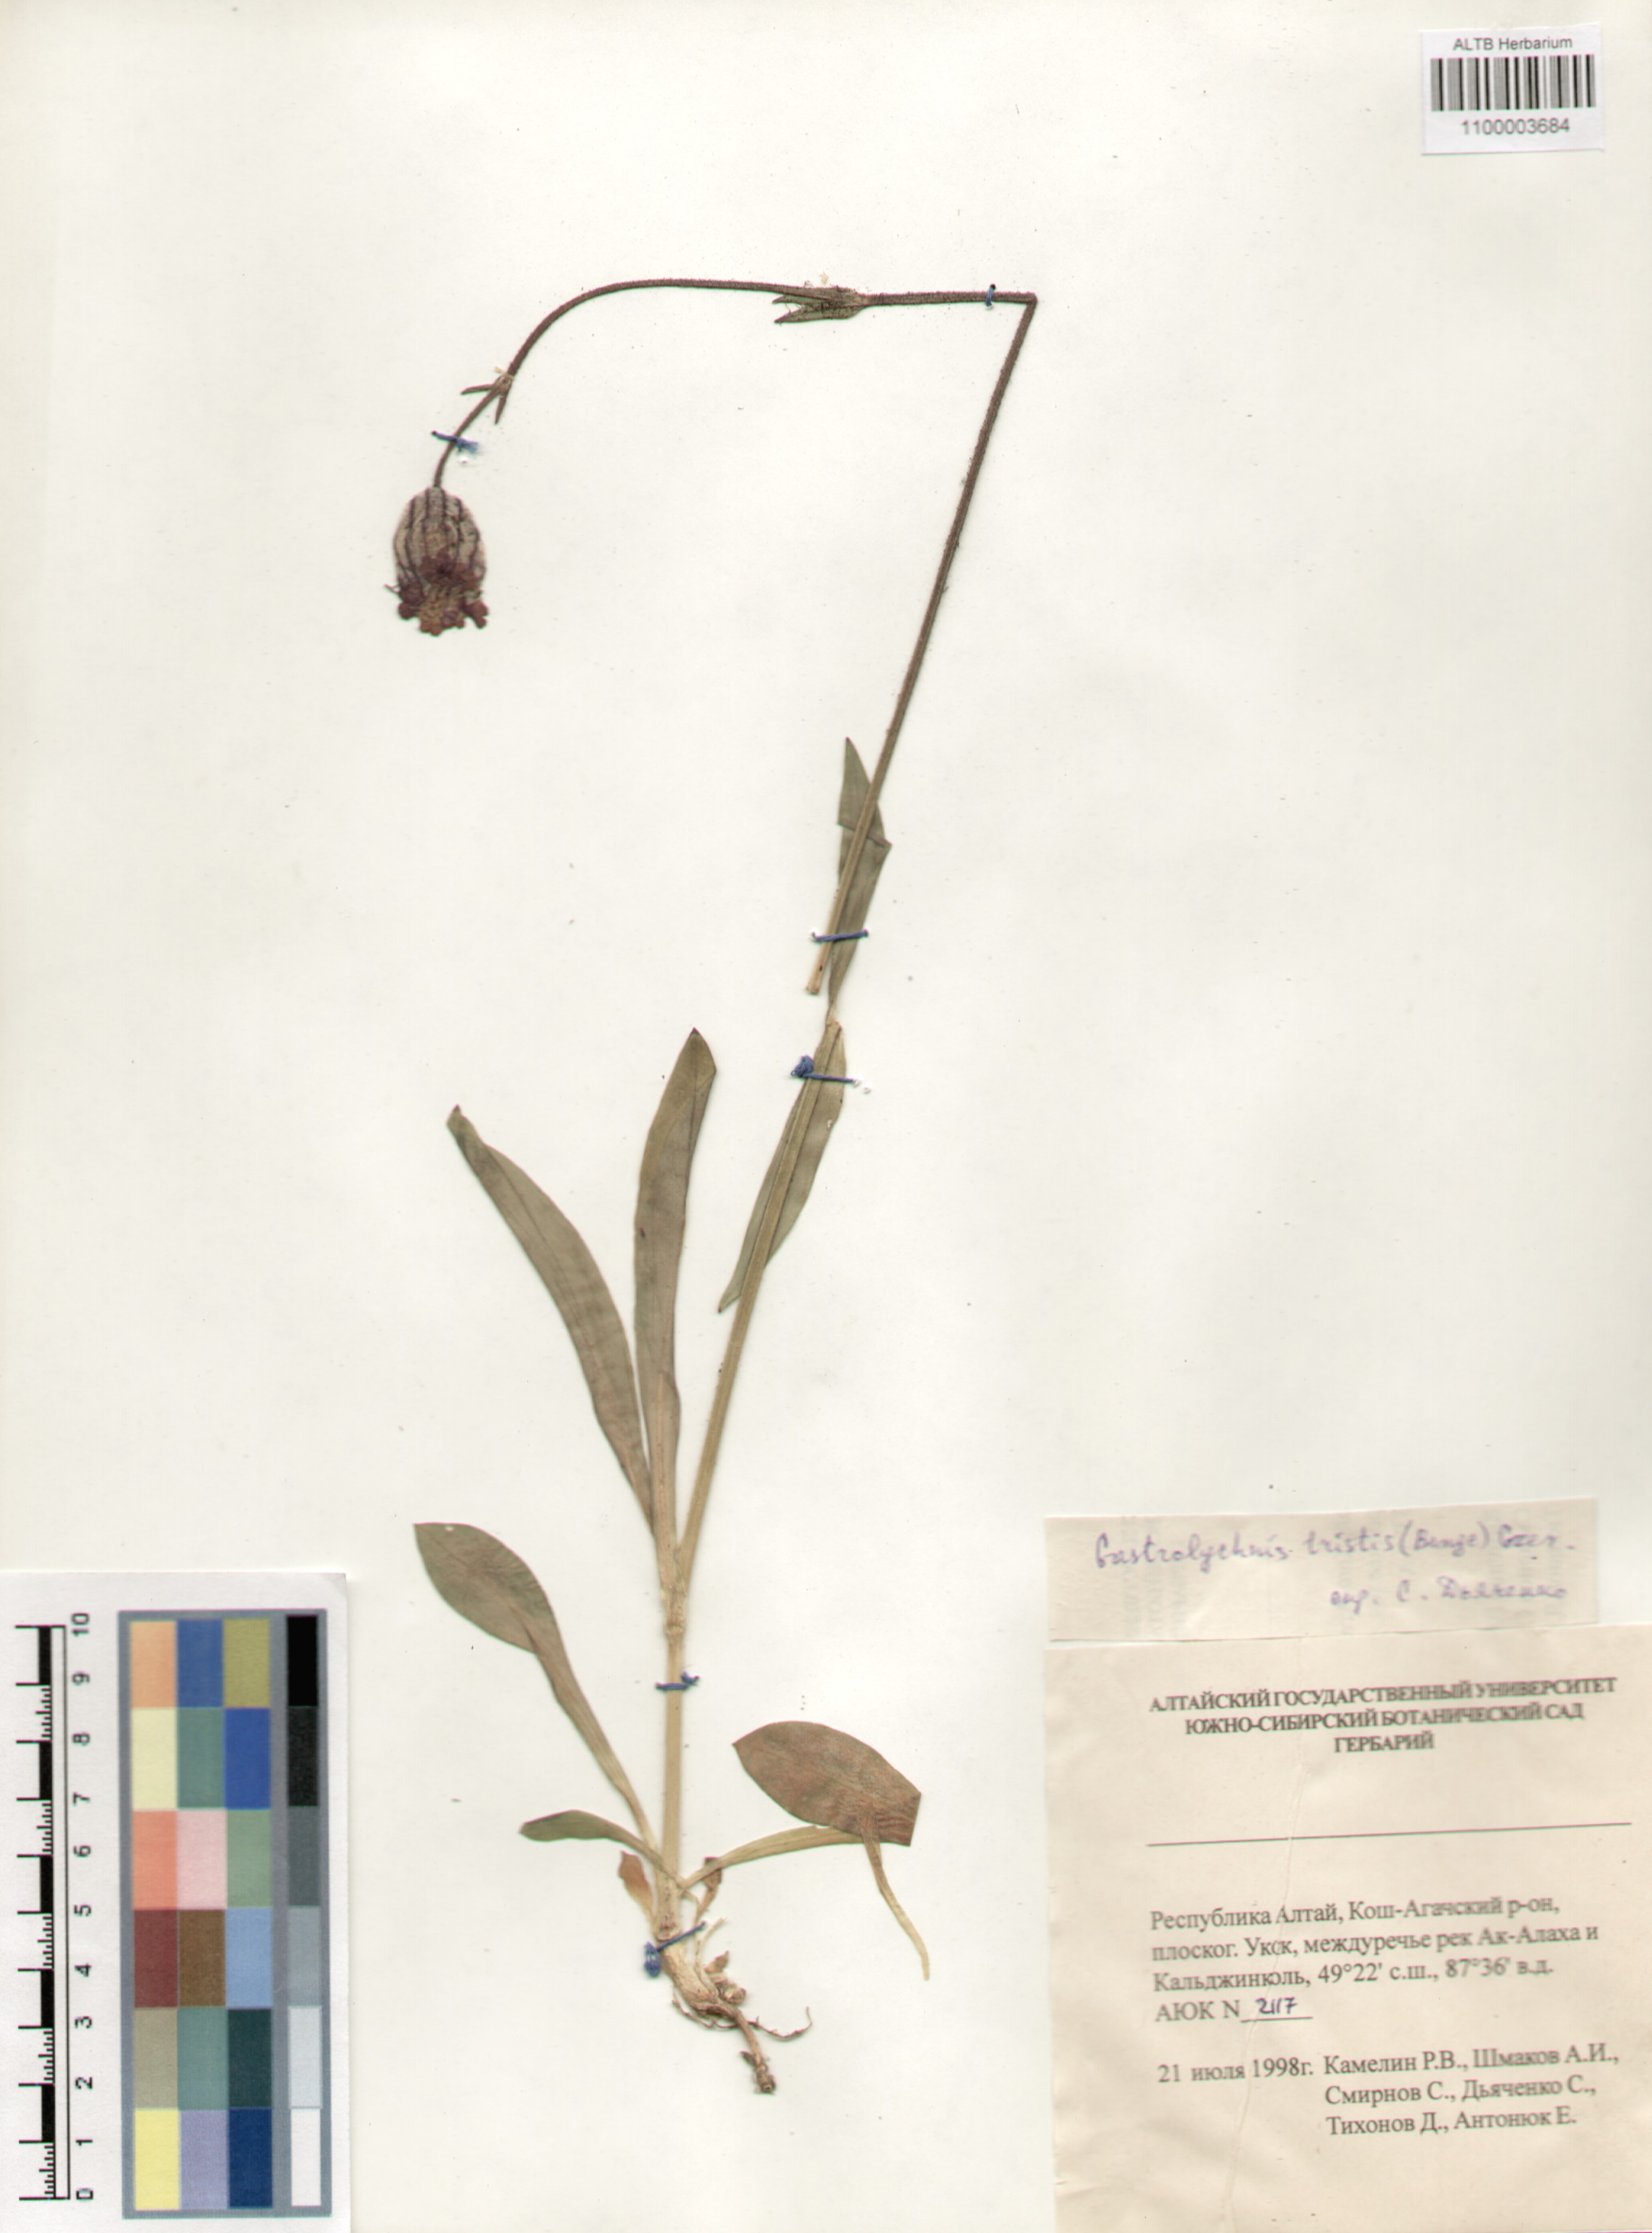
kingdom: Plantae
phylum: Tracheophyta
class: Magnoliopsida
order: Caryophyllales
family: Caryophyllaceae
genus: Silene
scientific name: Silene bungei
